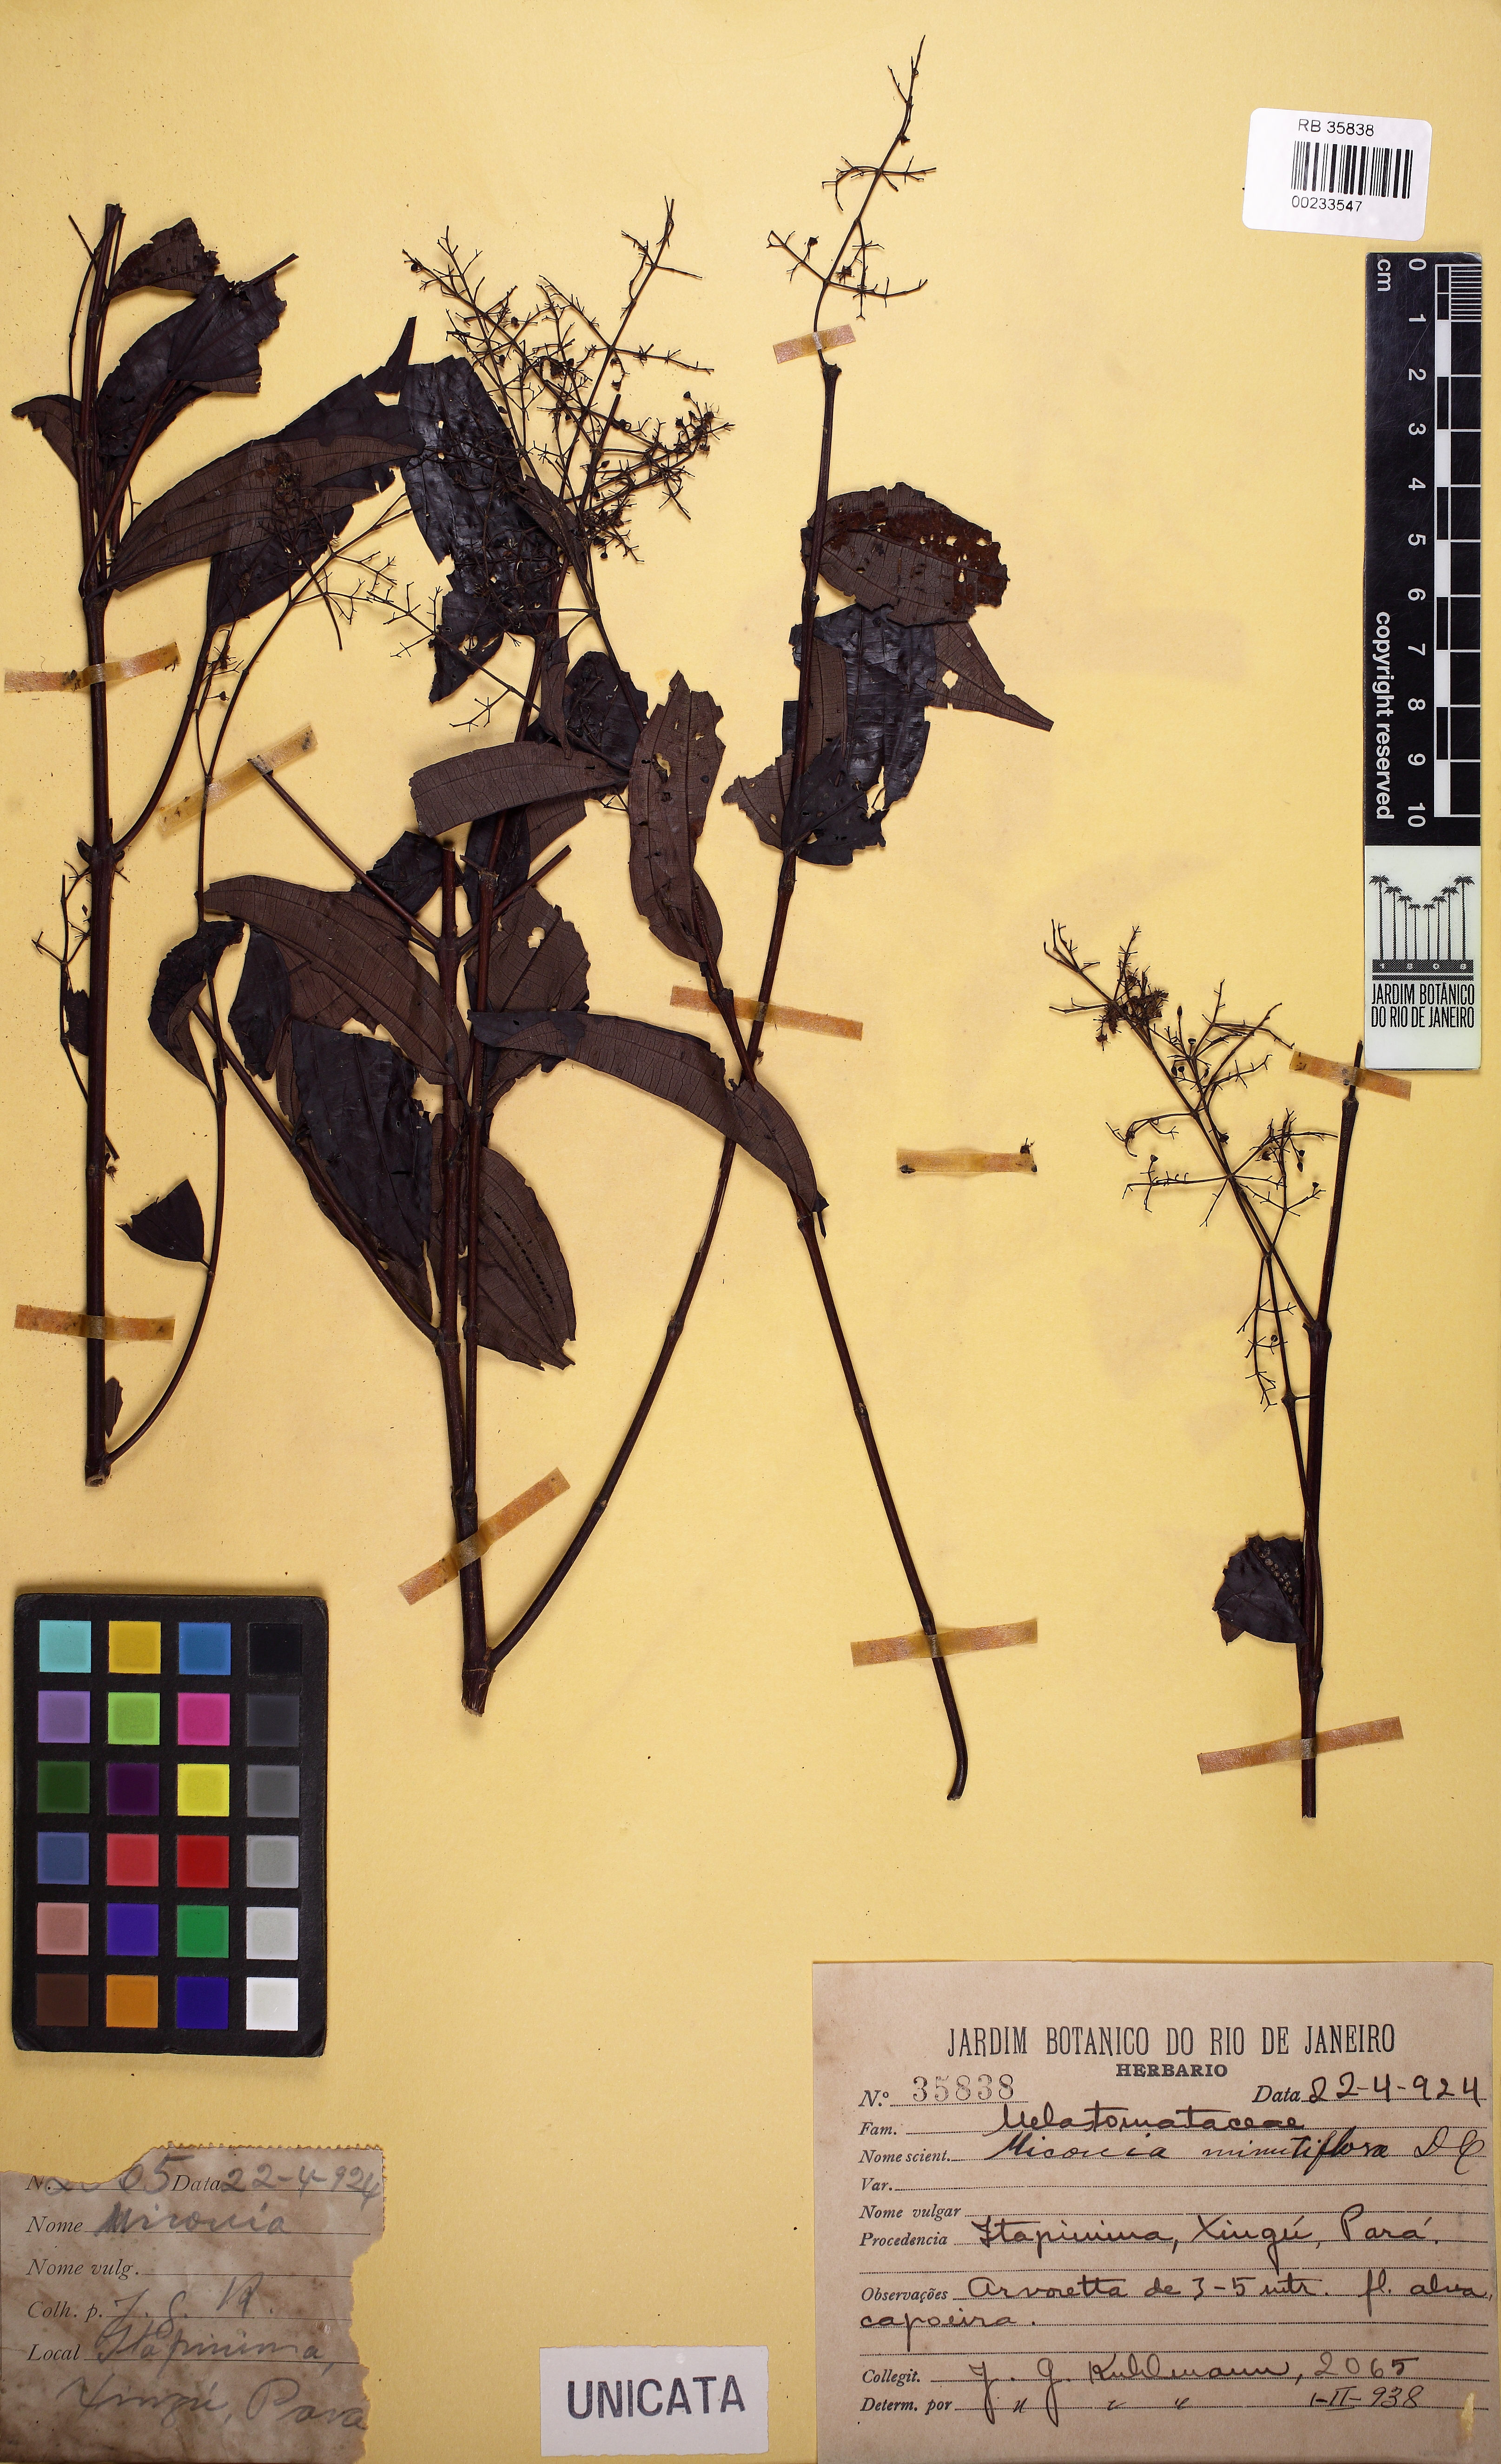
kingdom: Plantae
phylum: Tracheophyta
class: Magnoliopsida
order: Myrtales
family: Melastomataceae
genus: Miconia
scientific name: Miconia minutiflora
